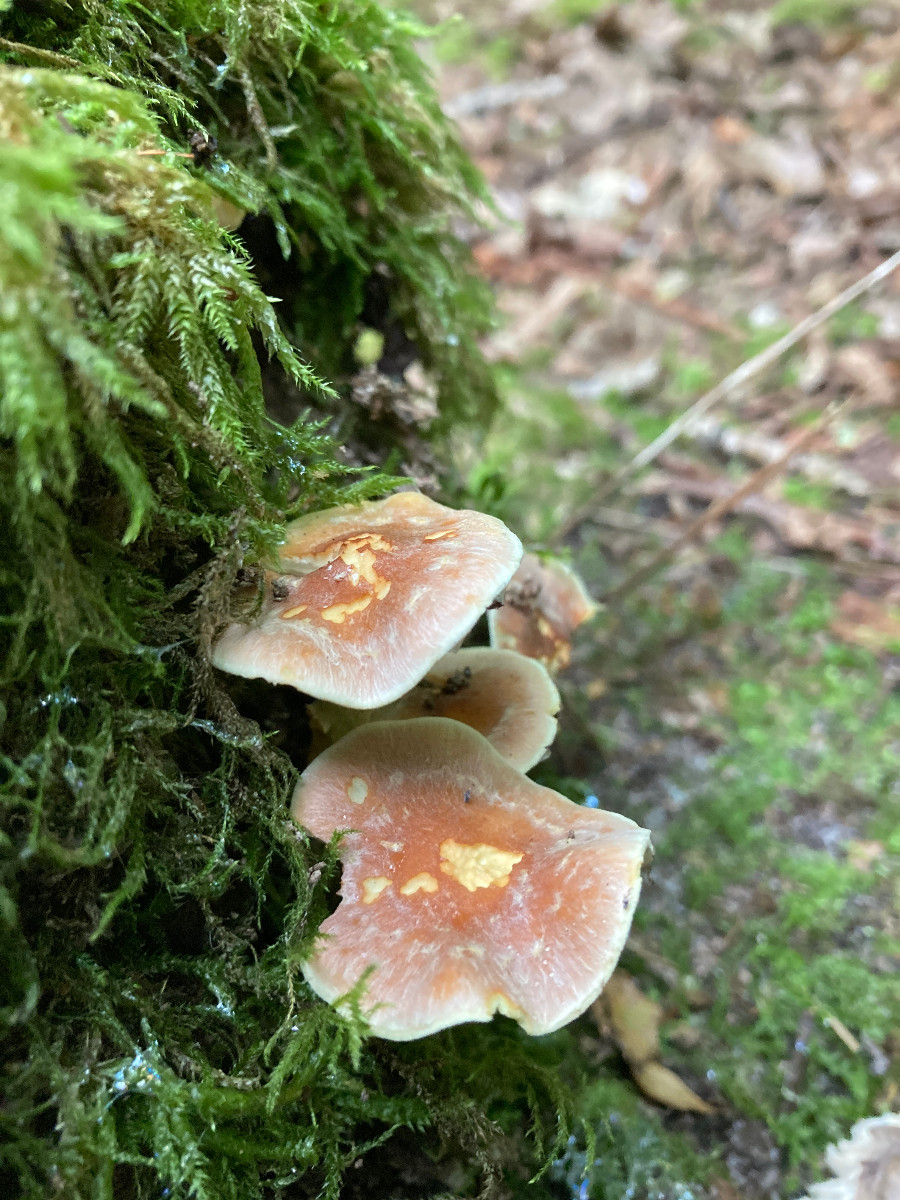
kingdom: Fungi
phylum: Basidiomycota
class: Agaricomycetes
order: Agaricales
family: Strophariaceae
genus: Hypholoma
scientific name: Hypholoma lateritium
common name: teglrød svovlhat
